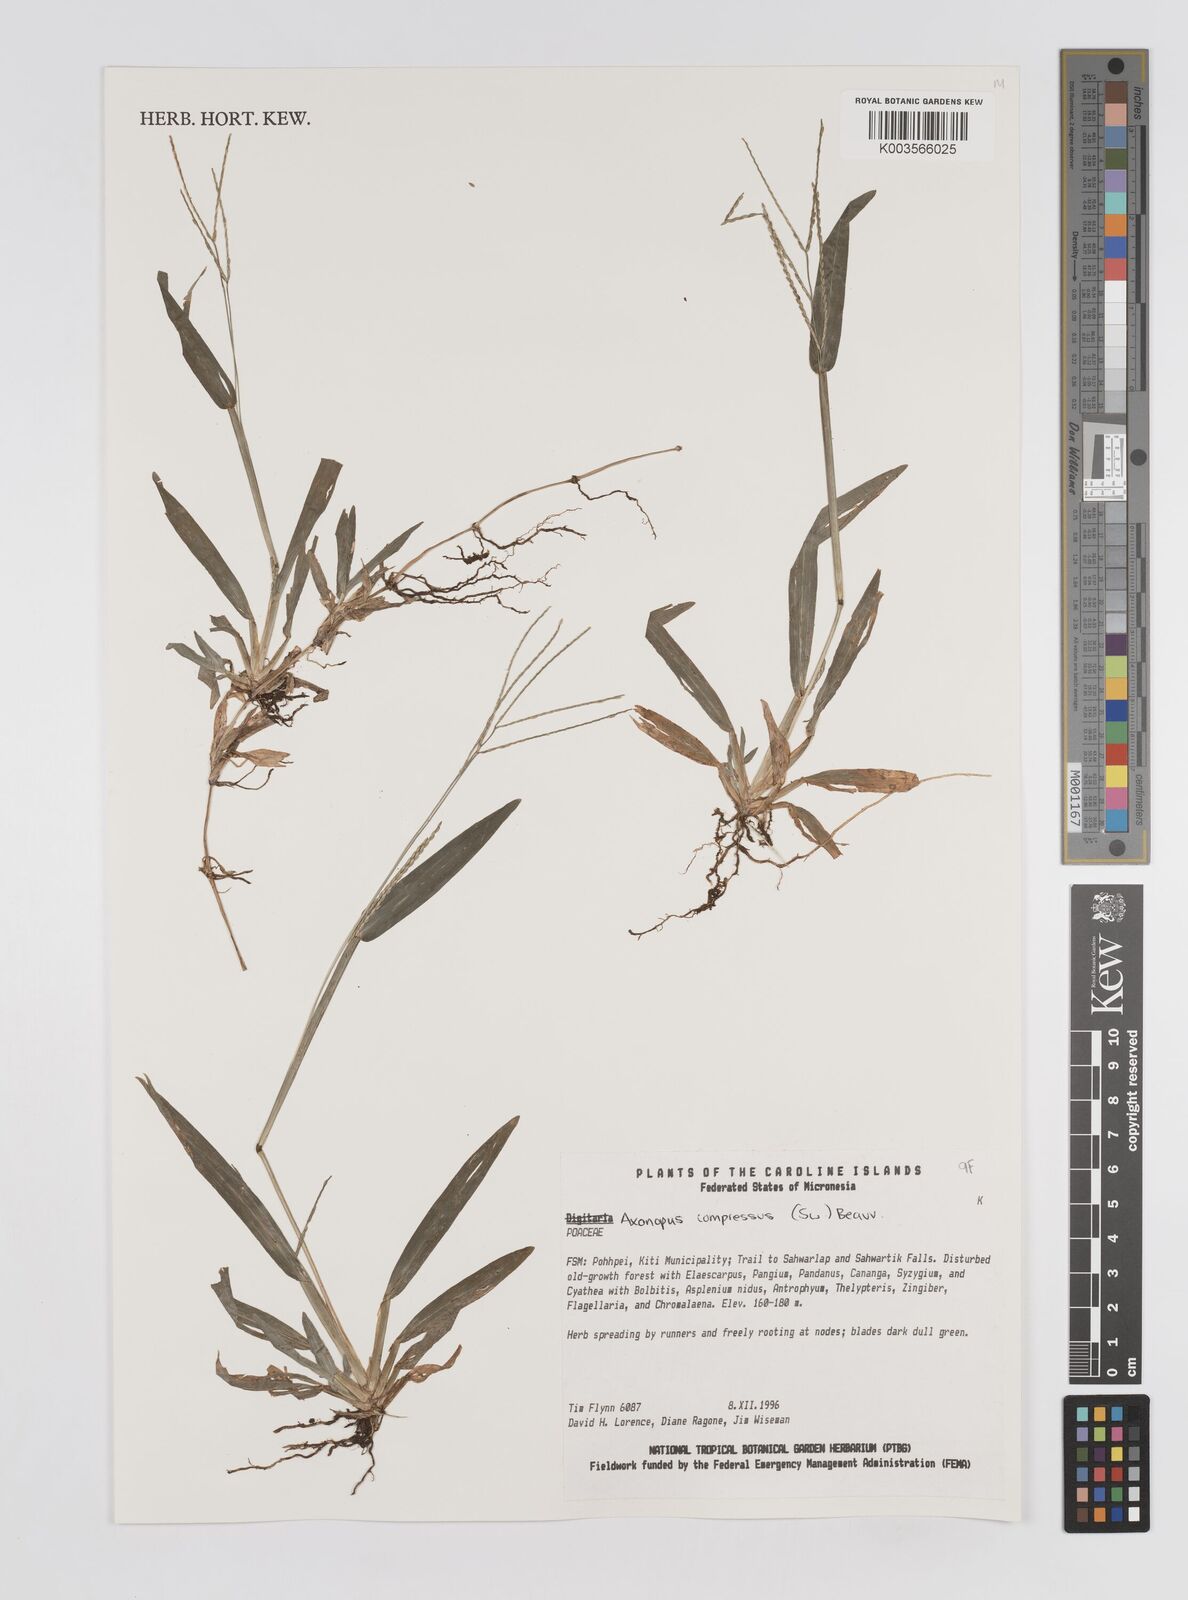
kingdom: Plantae
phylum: Tracheophyta
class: Liliopsida
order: Poales
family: Poaceae
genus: Axonopus
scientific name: Axonopus compressus
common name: American carpet grass
